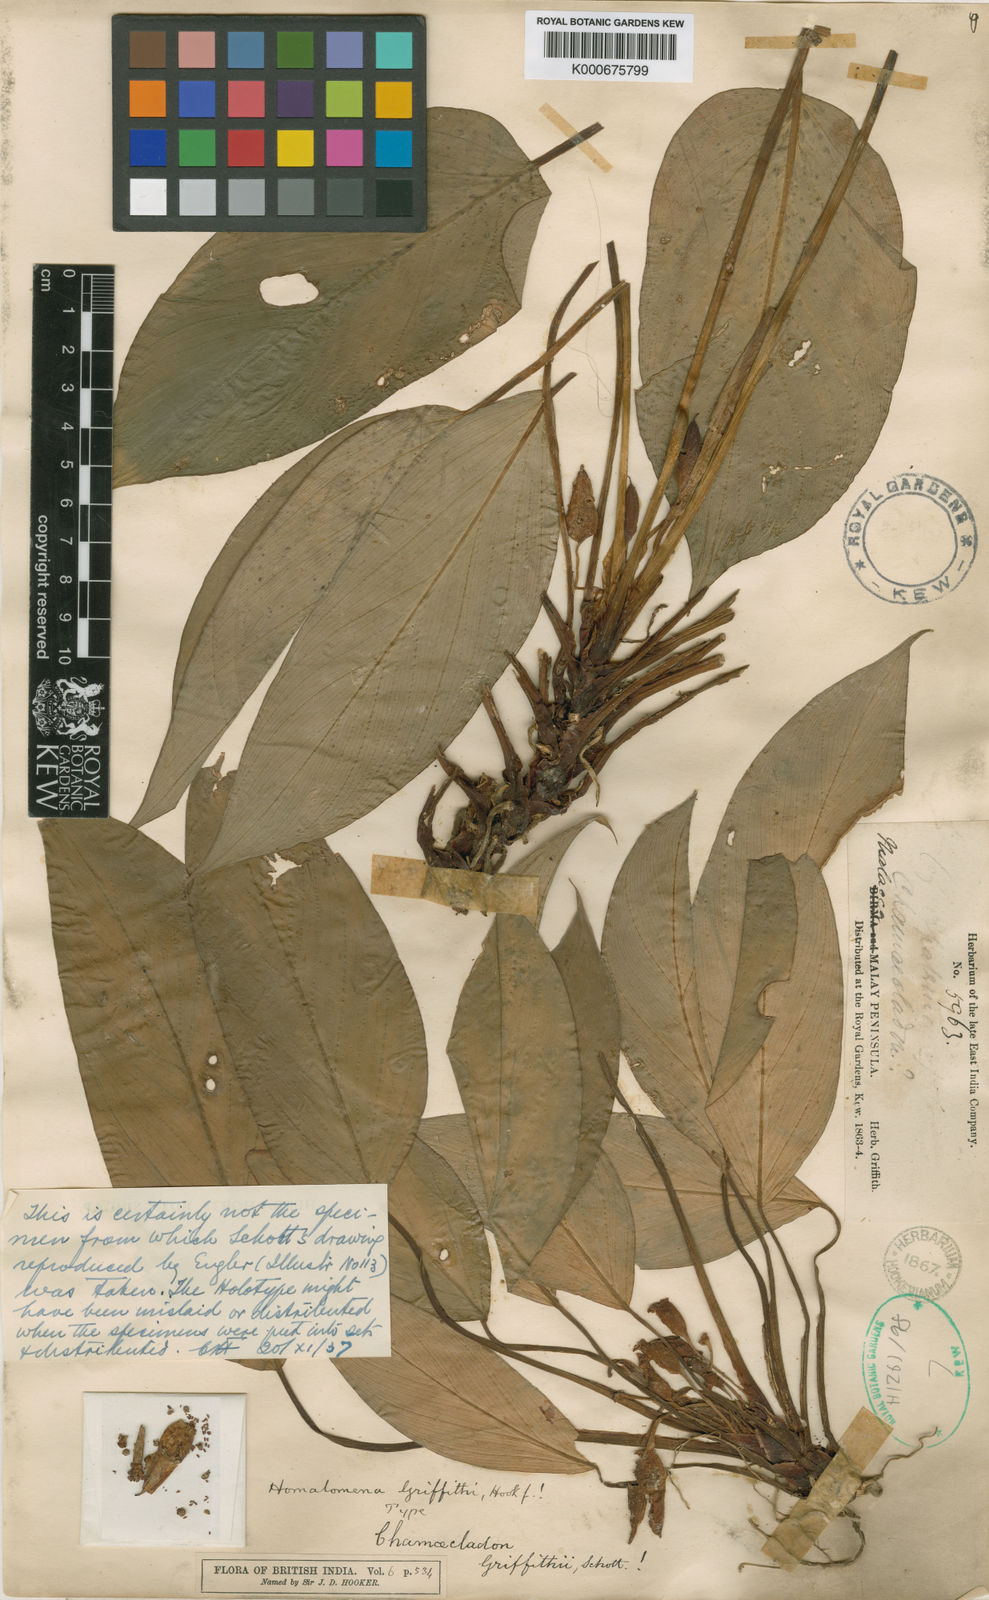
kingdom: Plantae
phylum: Tracheophyta
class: Liliopsida
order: Alismatales
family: Araceae
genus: Homalomena
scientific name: Homalomena griffithii
